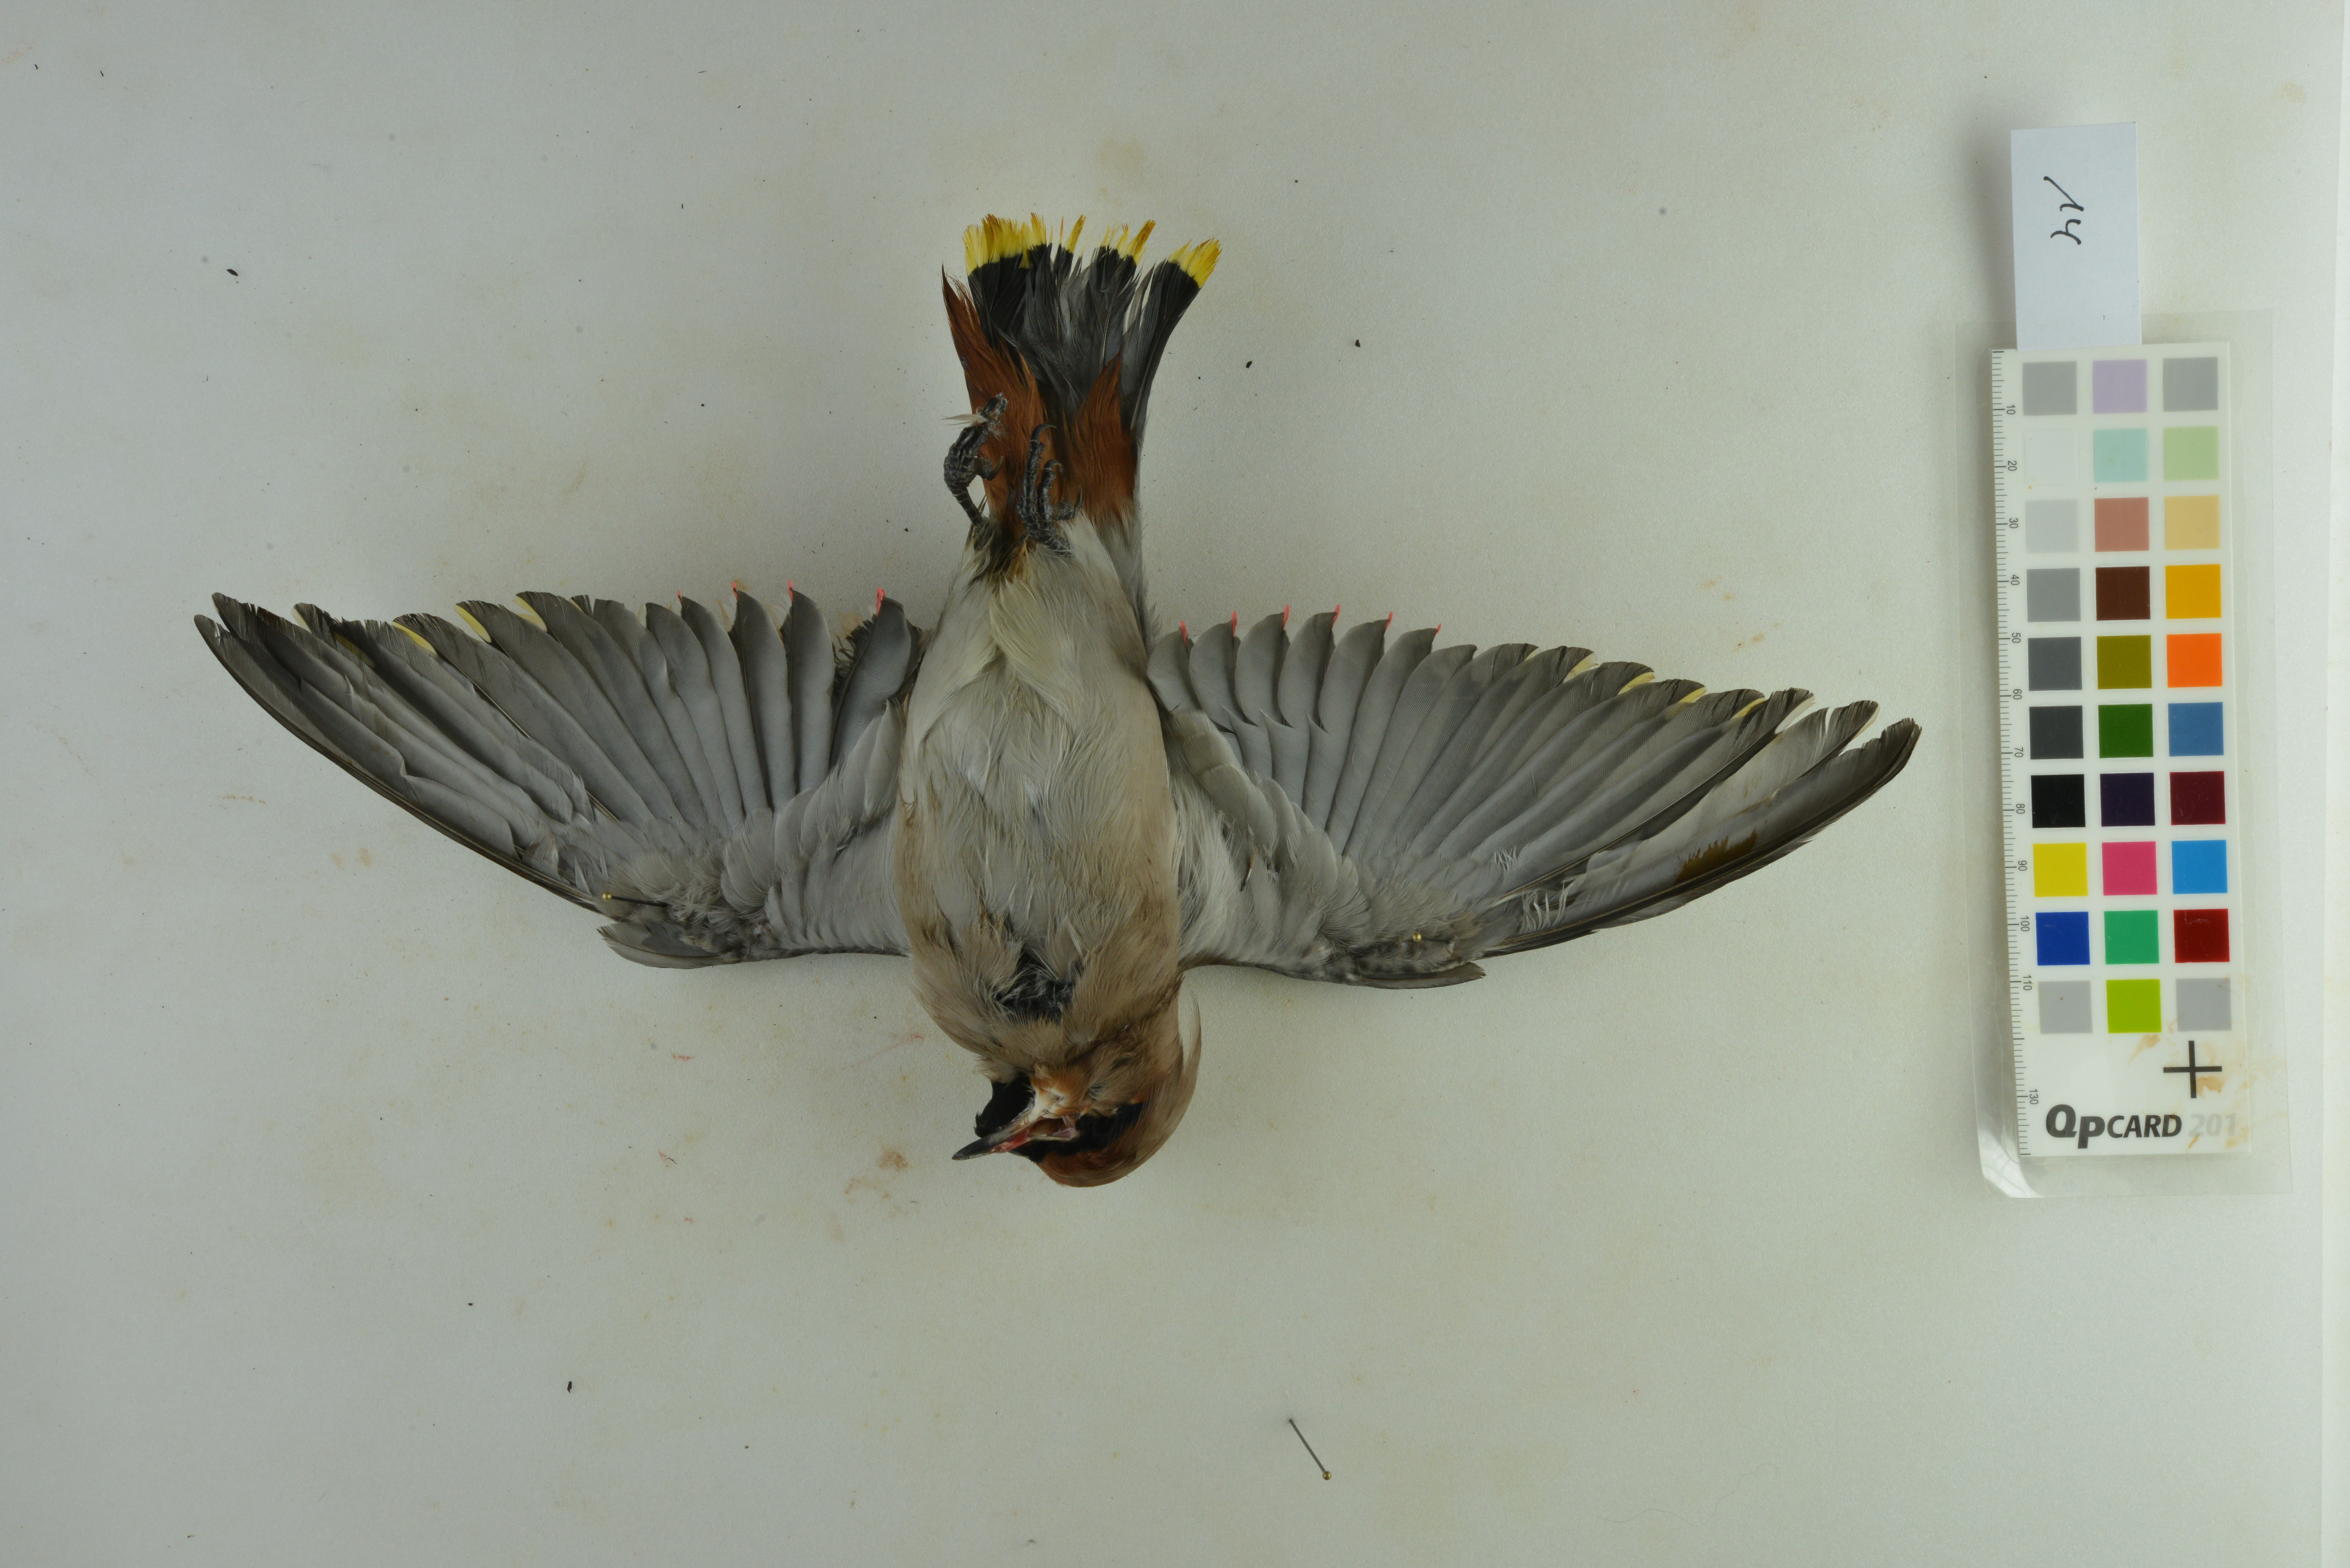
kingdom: Animalia
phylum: Chordata
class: Aves
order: Passeriformes
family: Bombycillidae
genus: Bombycilla
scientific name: Bombycilla garrulus
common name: Bohemian waxwing
